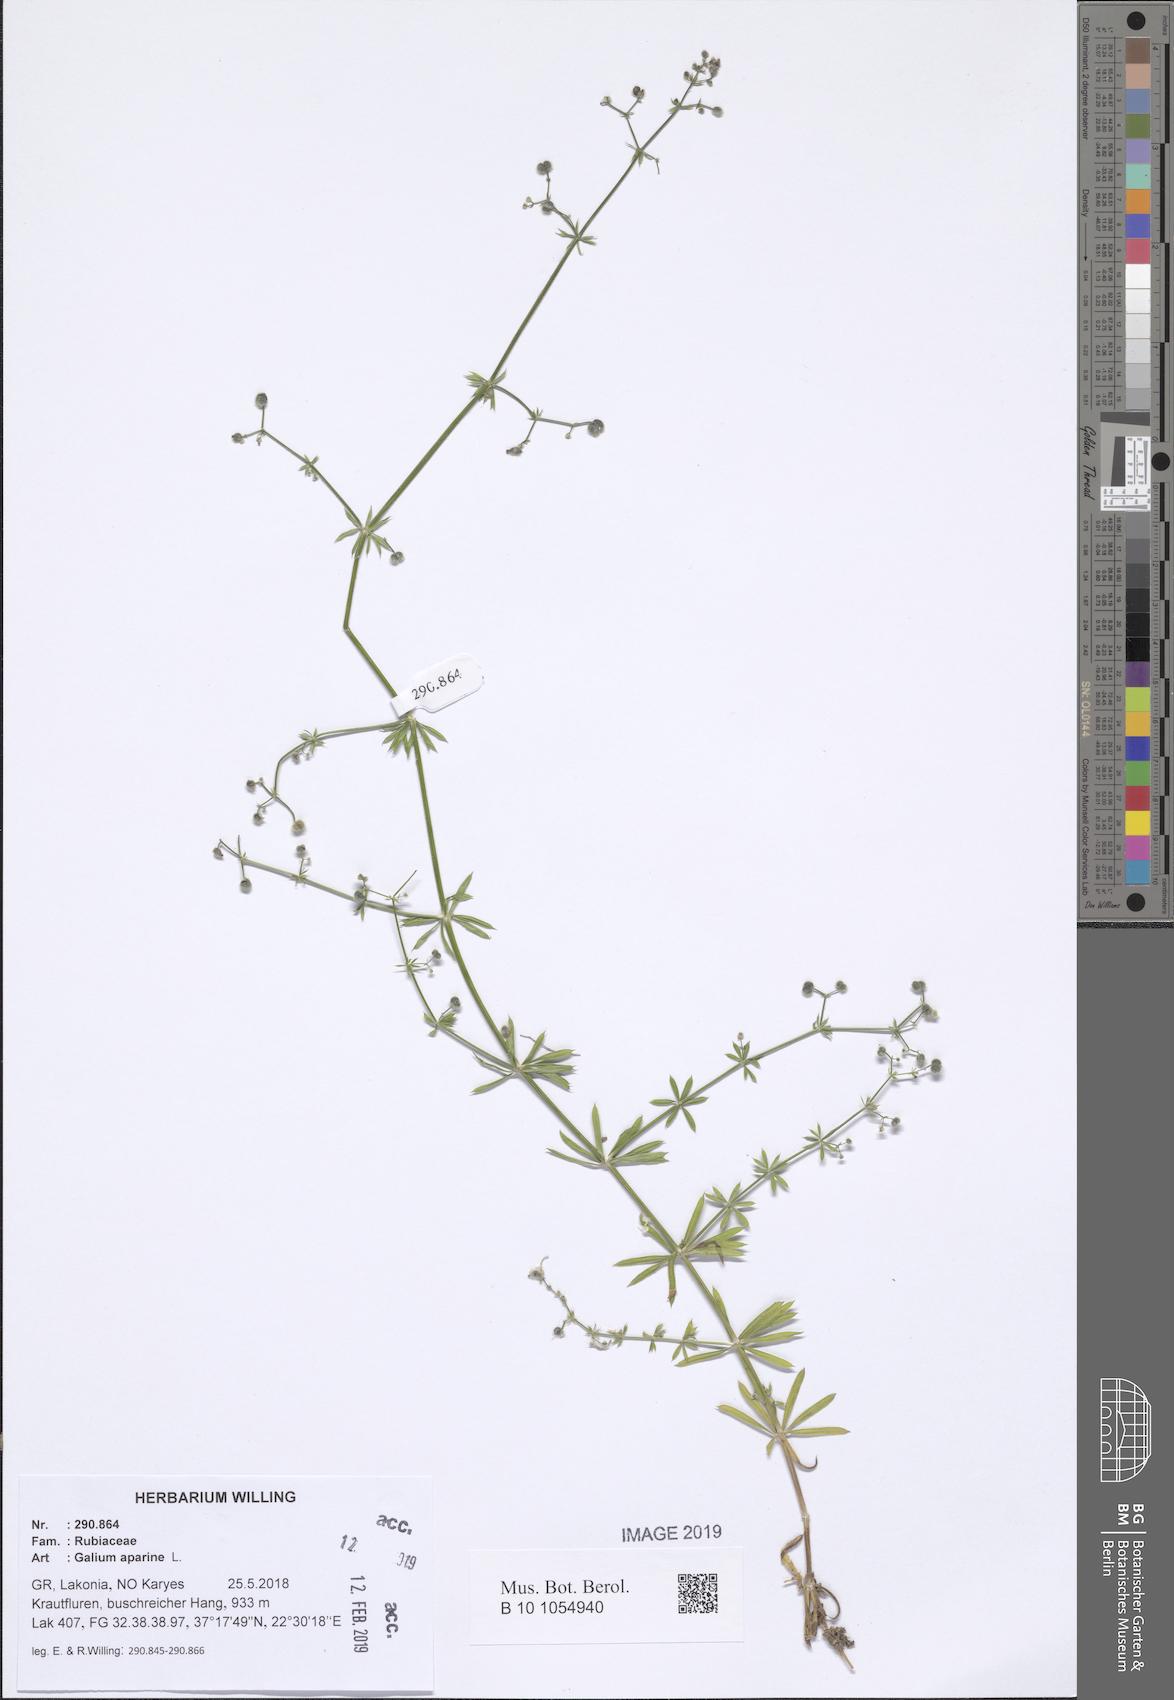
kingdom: Plantae
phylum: Tracheophyta
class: Magnoliopsida
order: Gentianales
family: Rubiaceae
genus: Galium
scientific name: Galium aparine
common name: Cleavers
